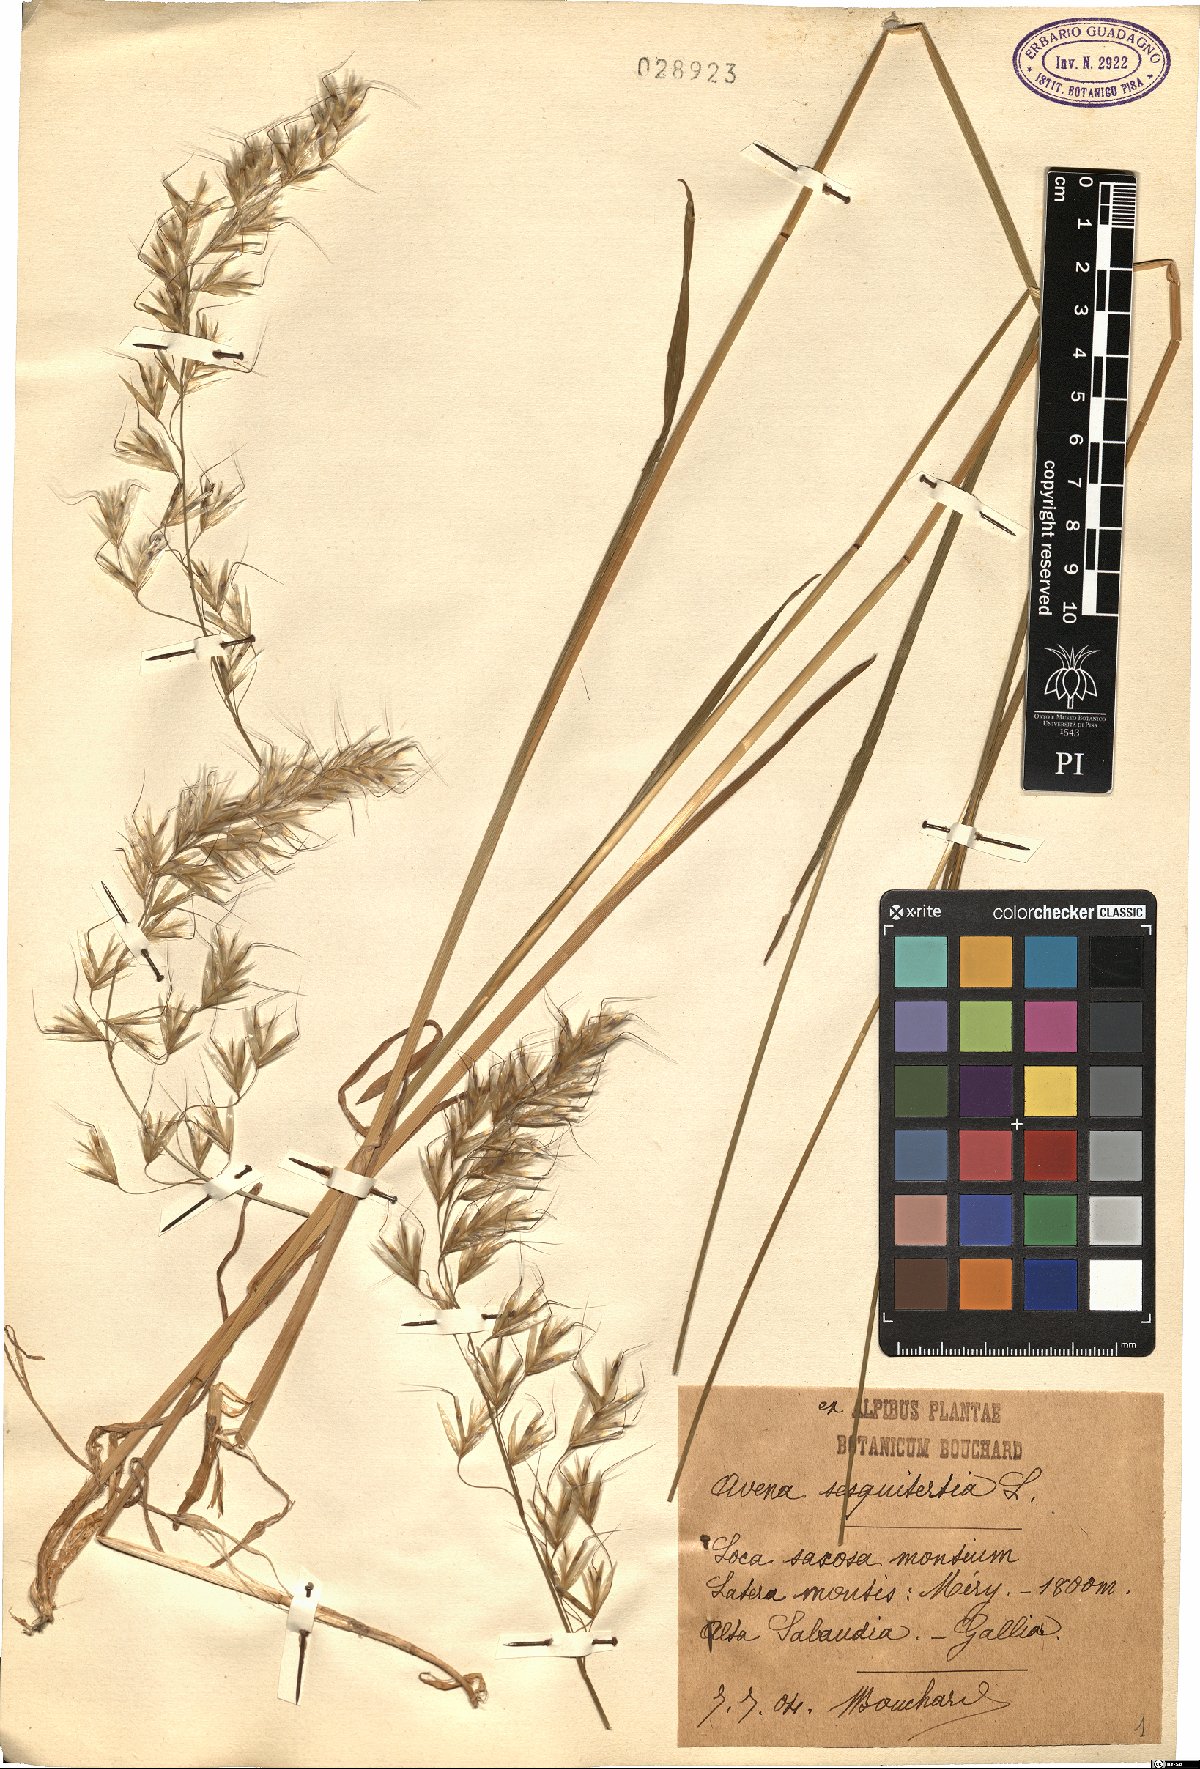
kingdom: Plantae
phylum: Tracheophyta
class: Liliopsida
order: Poales
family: Poaceae
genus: Avenula
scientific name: Avenula pubescens
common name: Downy alpine oatgrass
